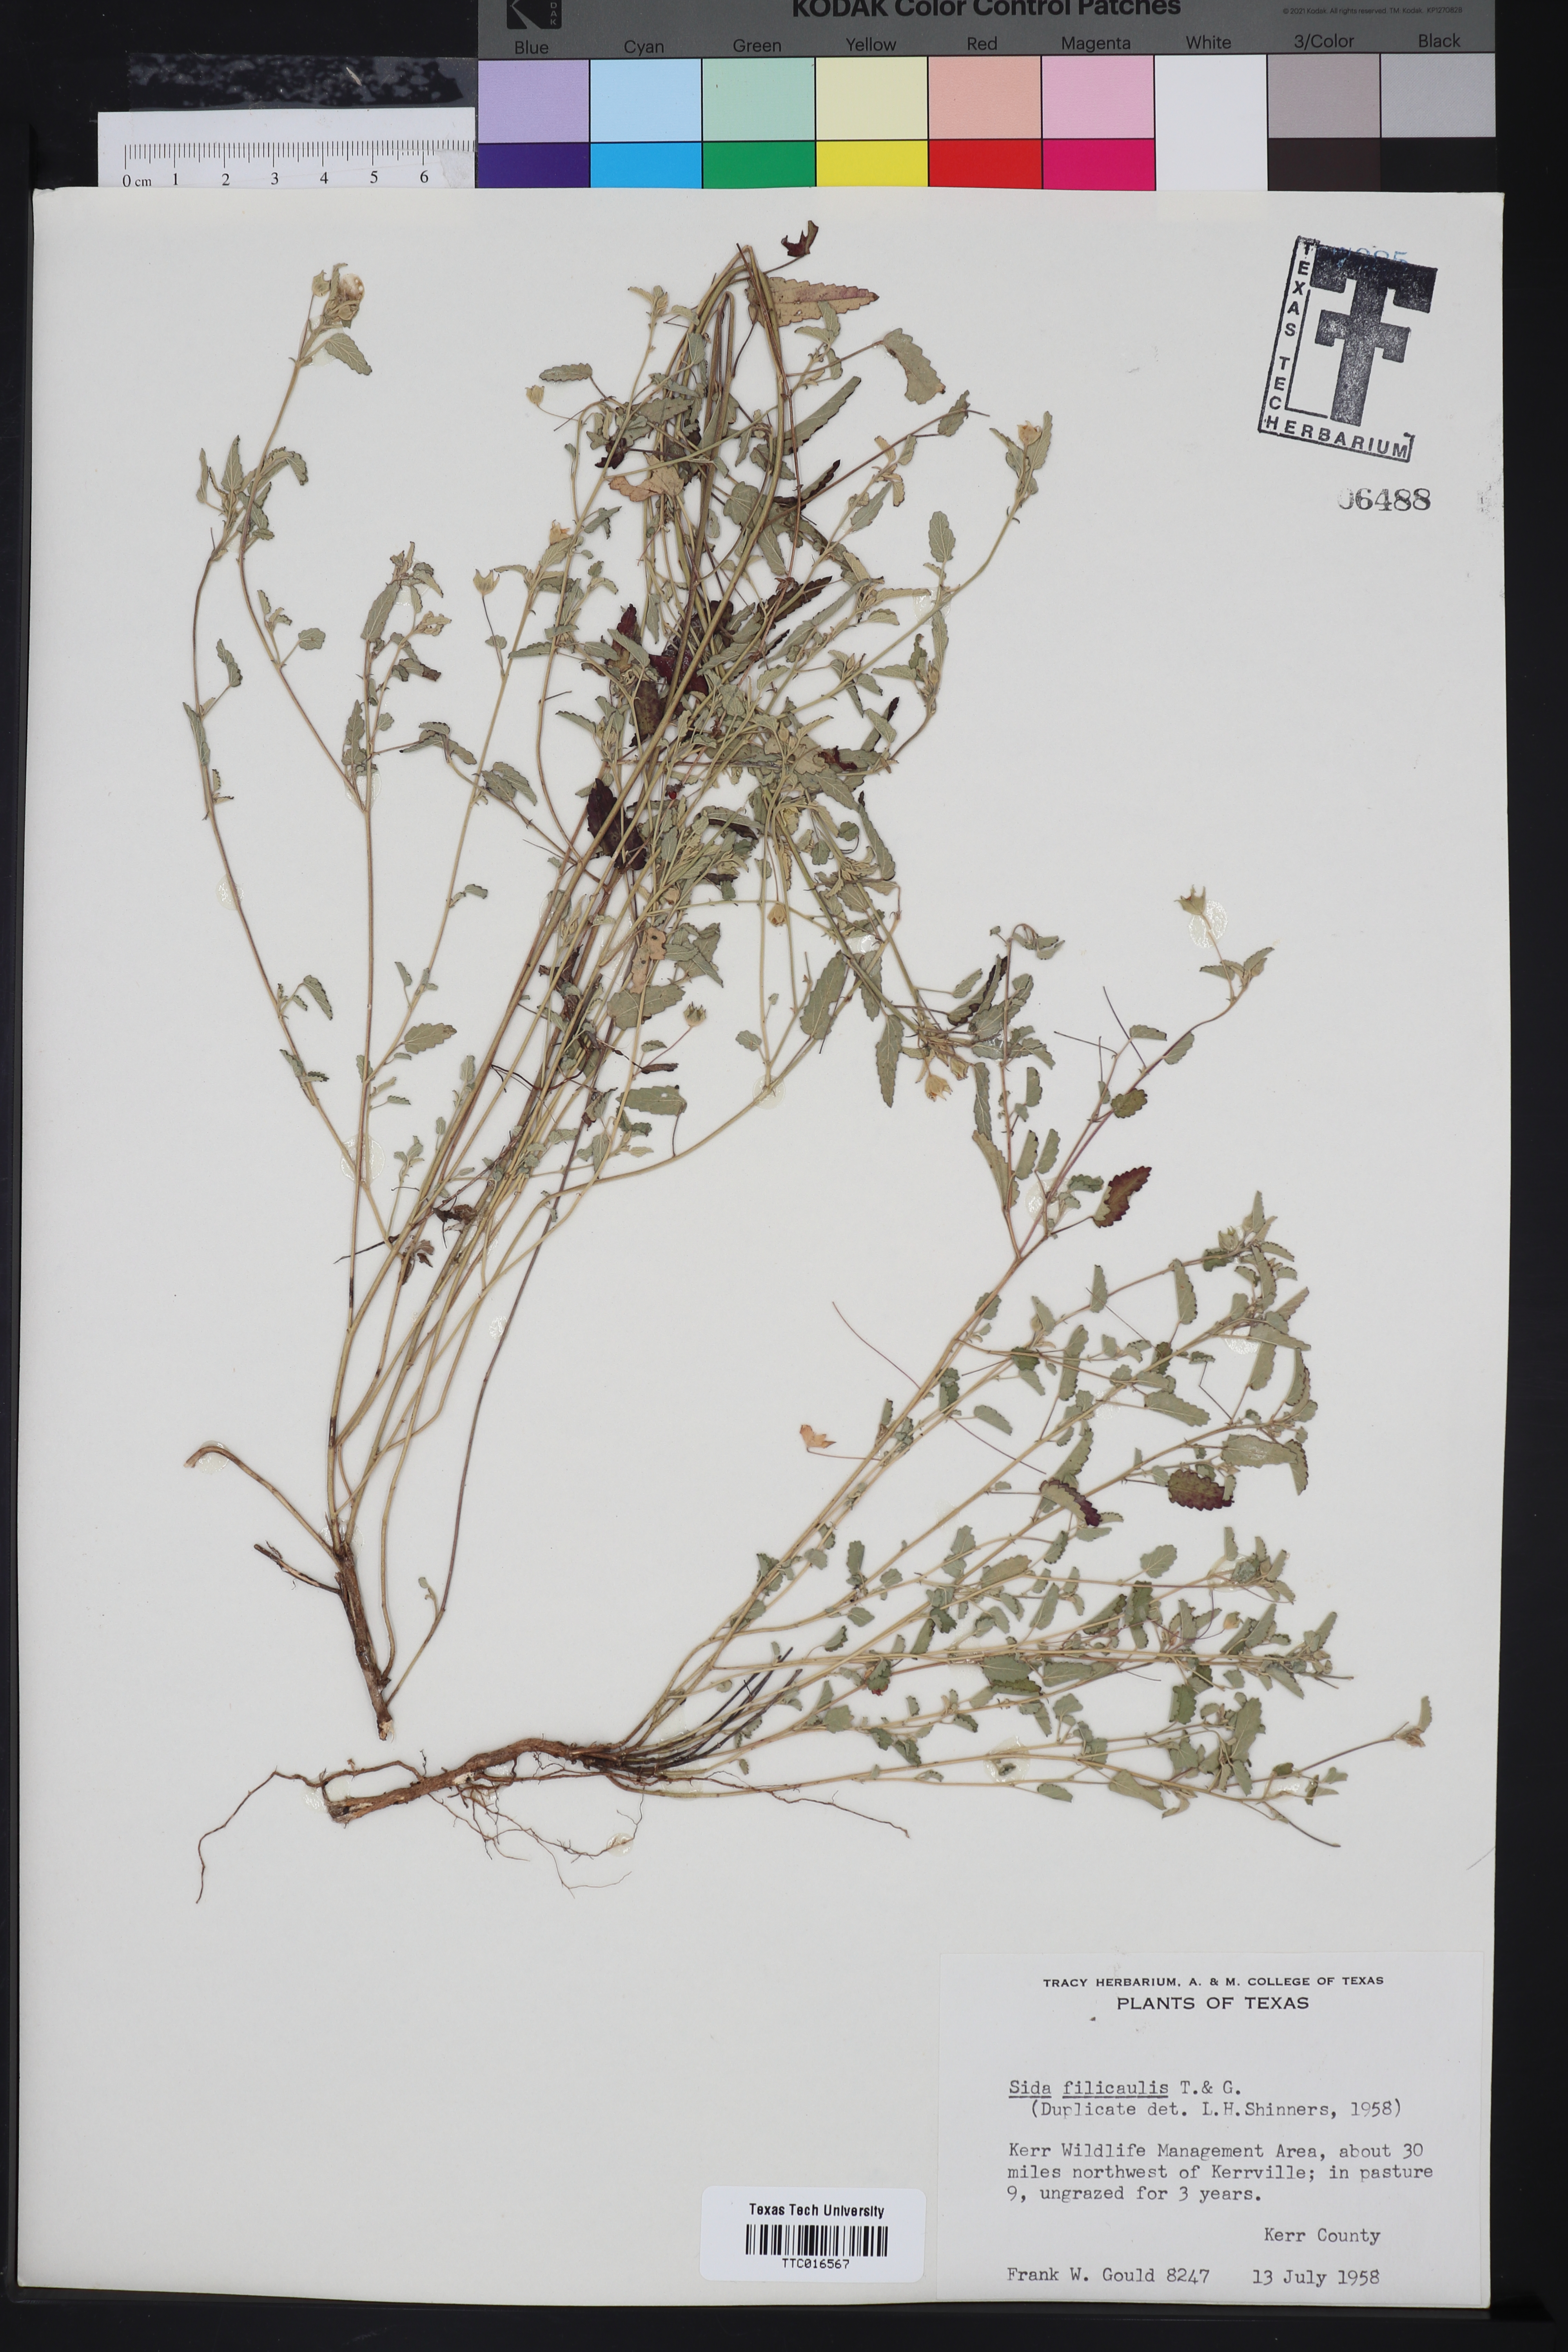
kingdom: Plantae
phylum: Tracheophyta
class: Magnoliopsida
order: Malvales
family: Malvaceae
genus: Sida
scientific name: Sida abutilifolia
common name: Spreading fanpetals
